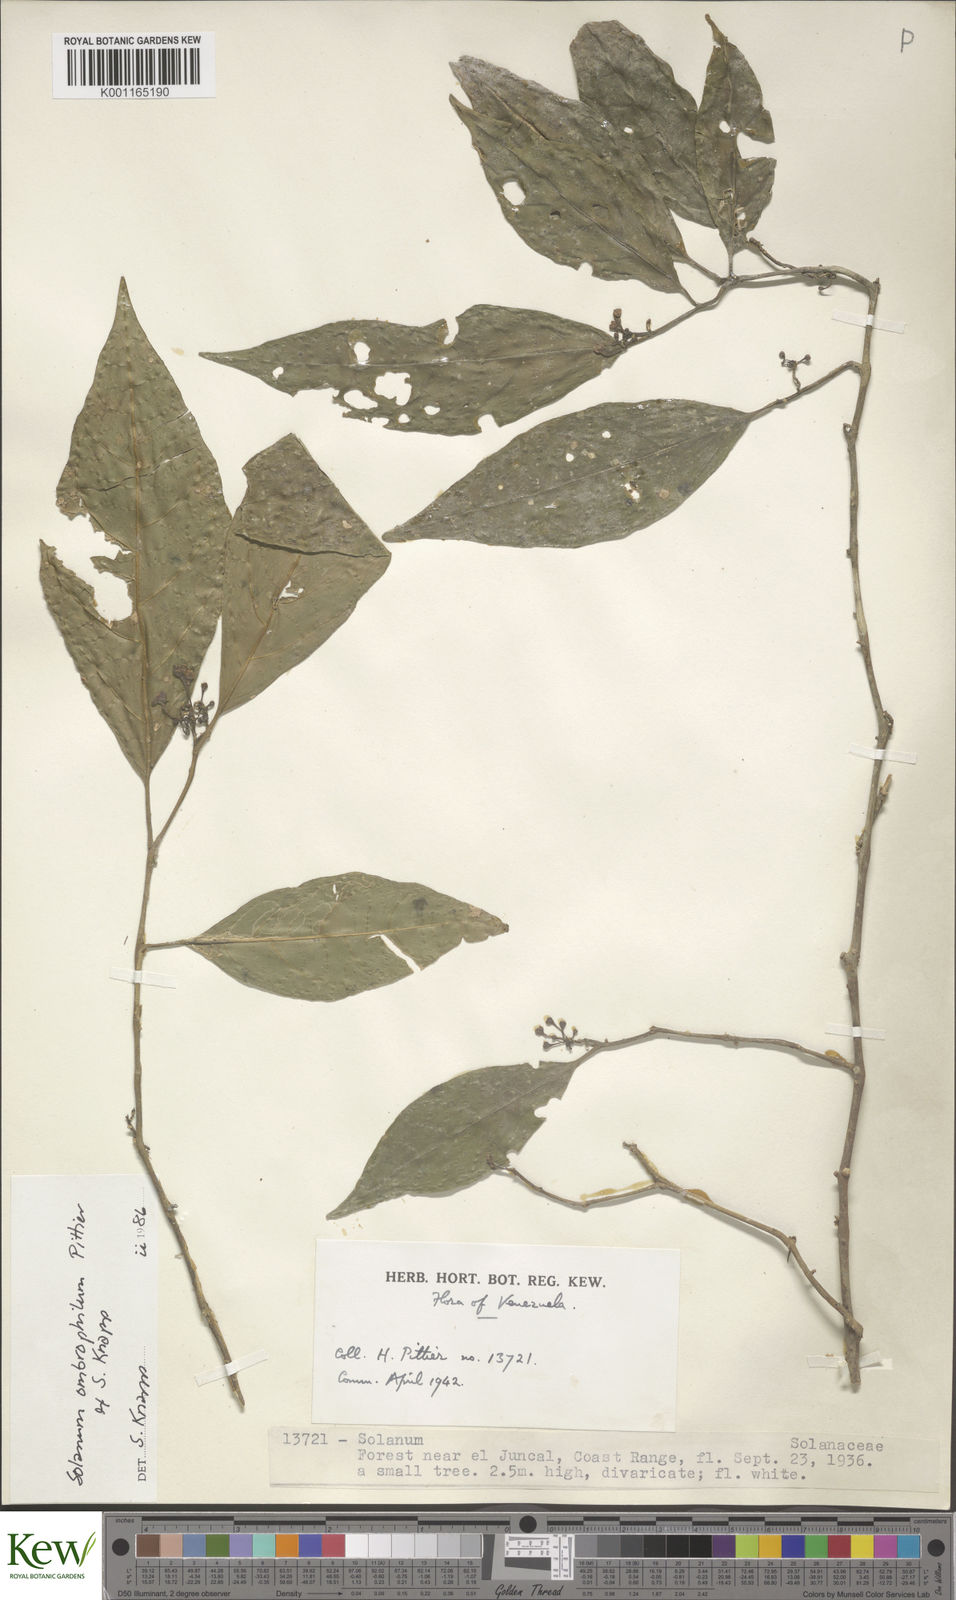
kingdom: Plantae
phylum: Tracheophyta
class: Magnoliopsida
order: Solanales
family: Solanaceae
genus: Solanum
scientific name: Solanum ombrophilum
